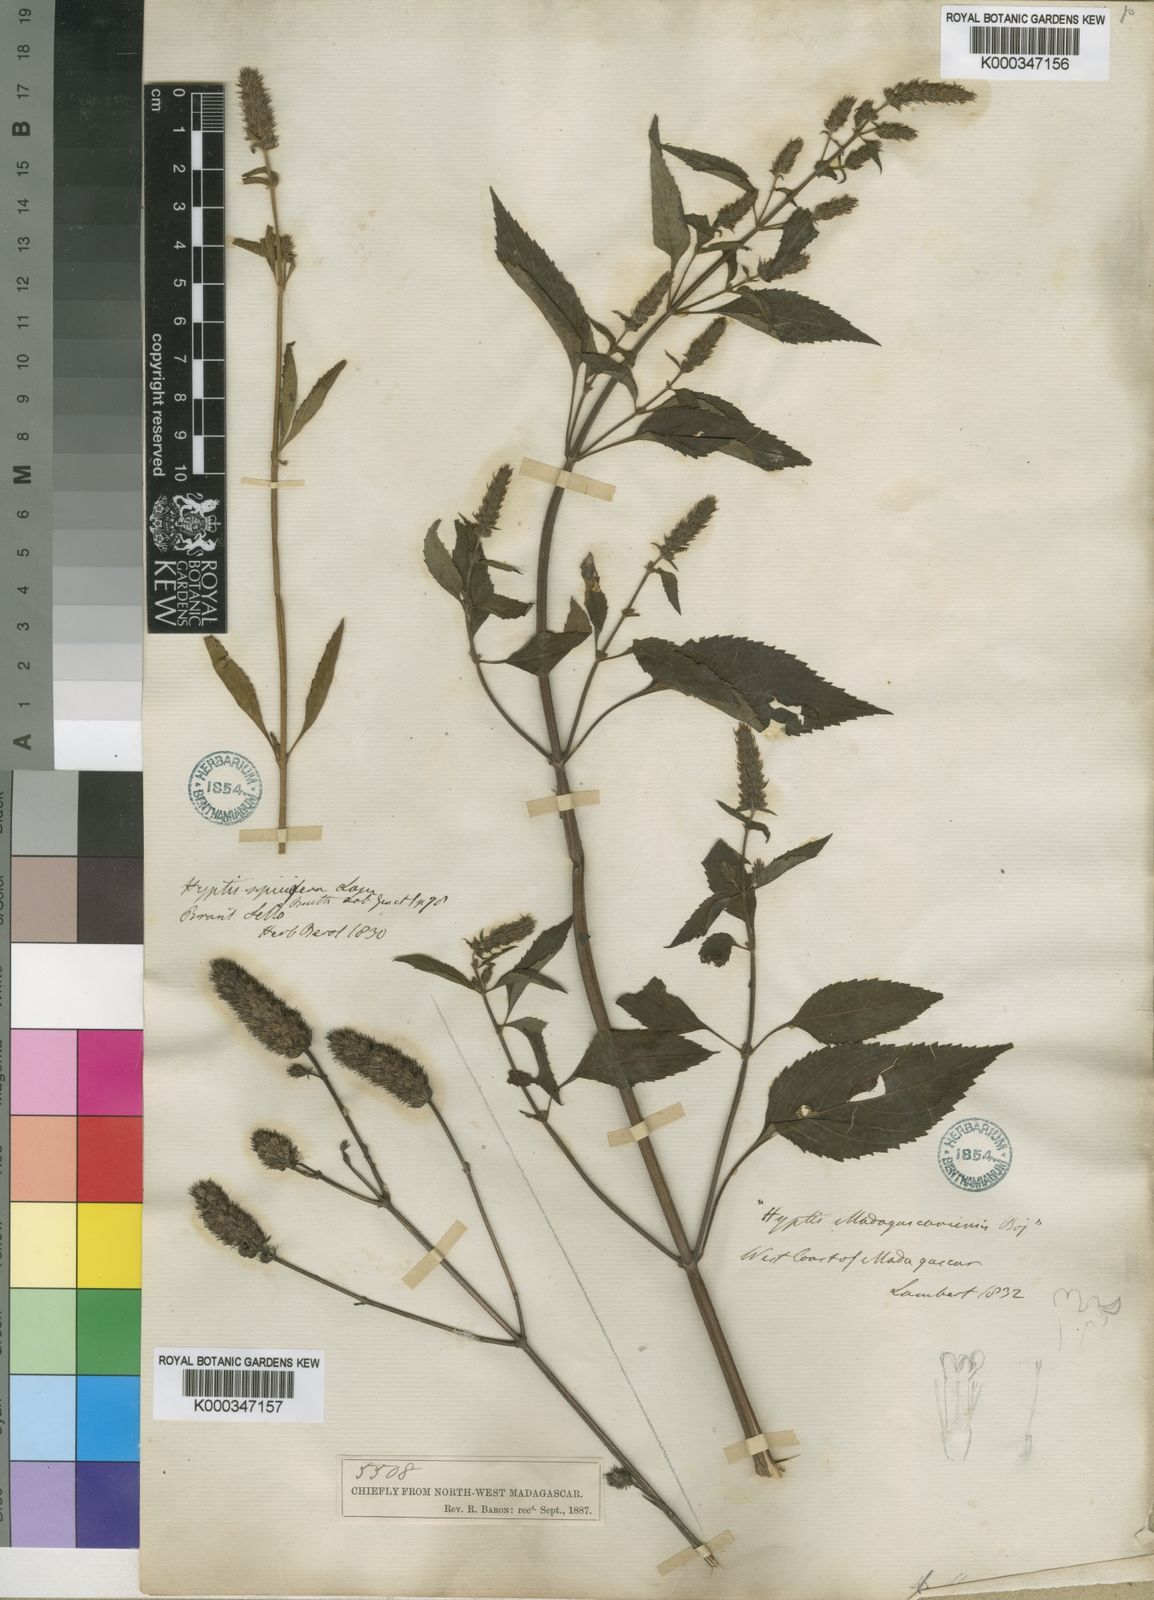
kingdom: Plantae
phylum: Tracheophyta
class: Magnoliopsida
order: Lamiales
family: Lamiaceae
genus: Cantinoa
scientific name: Cantinoa americana
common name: Black-sesame
